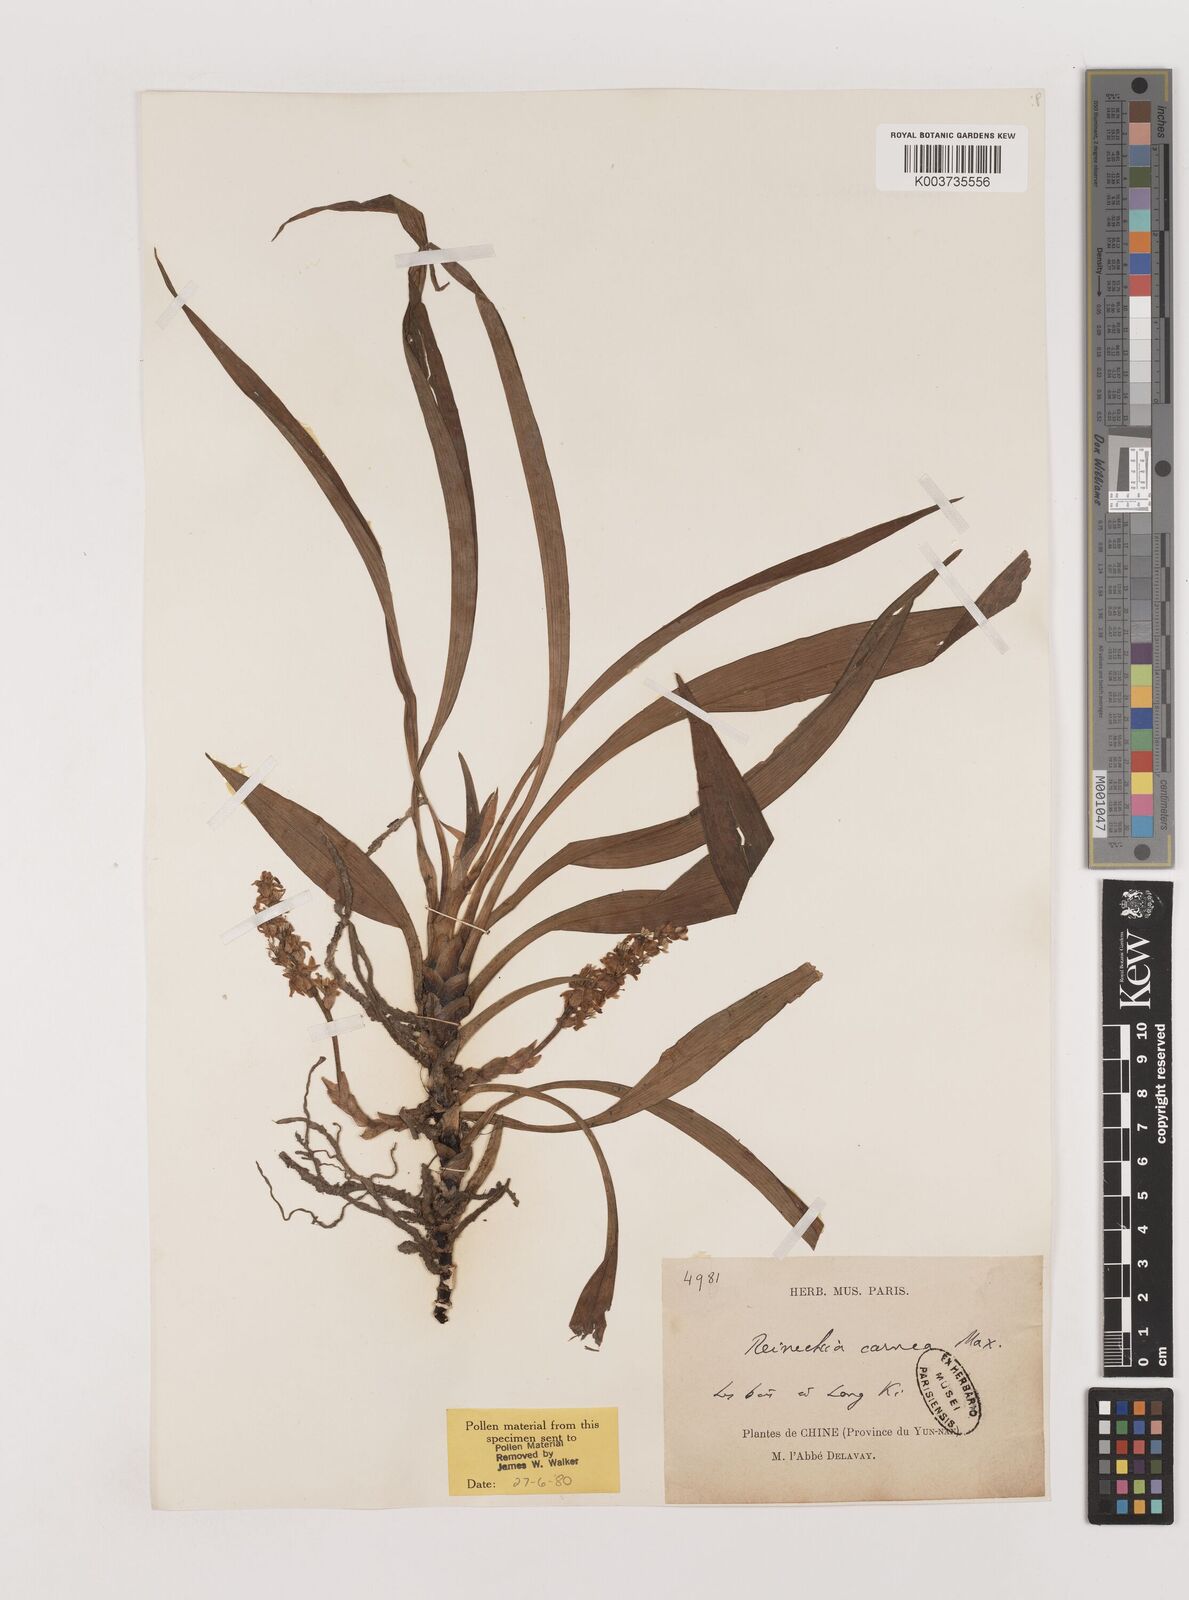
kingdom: Plantae
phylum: Tracheophyta
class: Liliopsida
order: Asparagales
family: Asparagaceae
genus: Reineckea
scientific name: Reineckea carnea
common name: Reineckea
